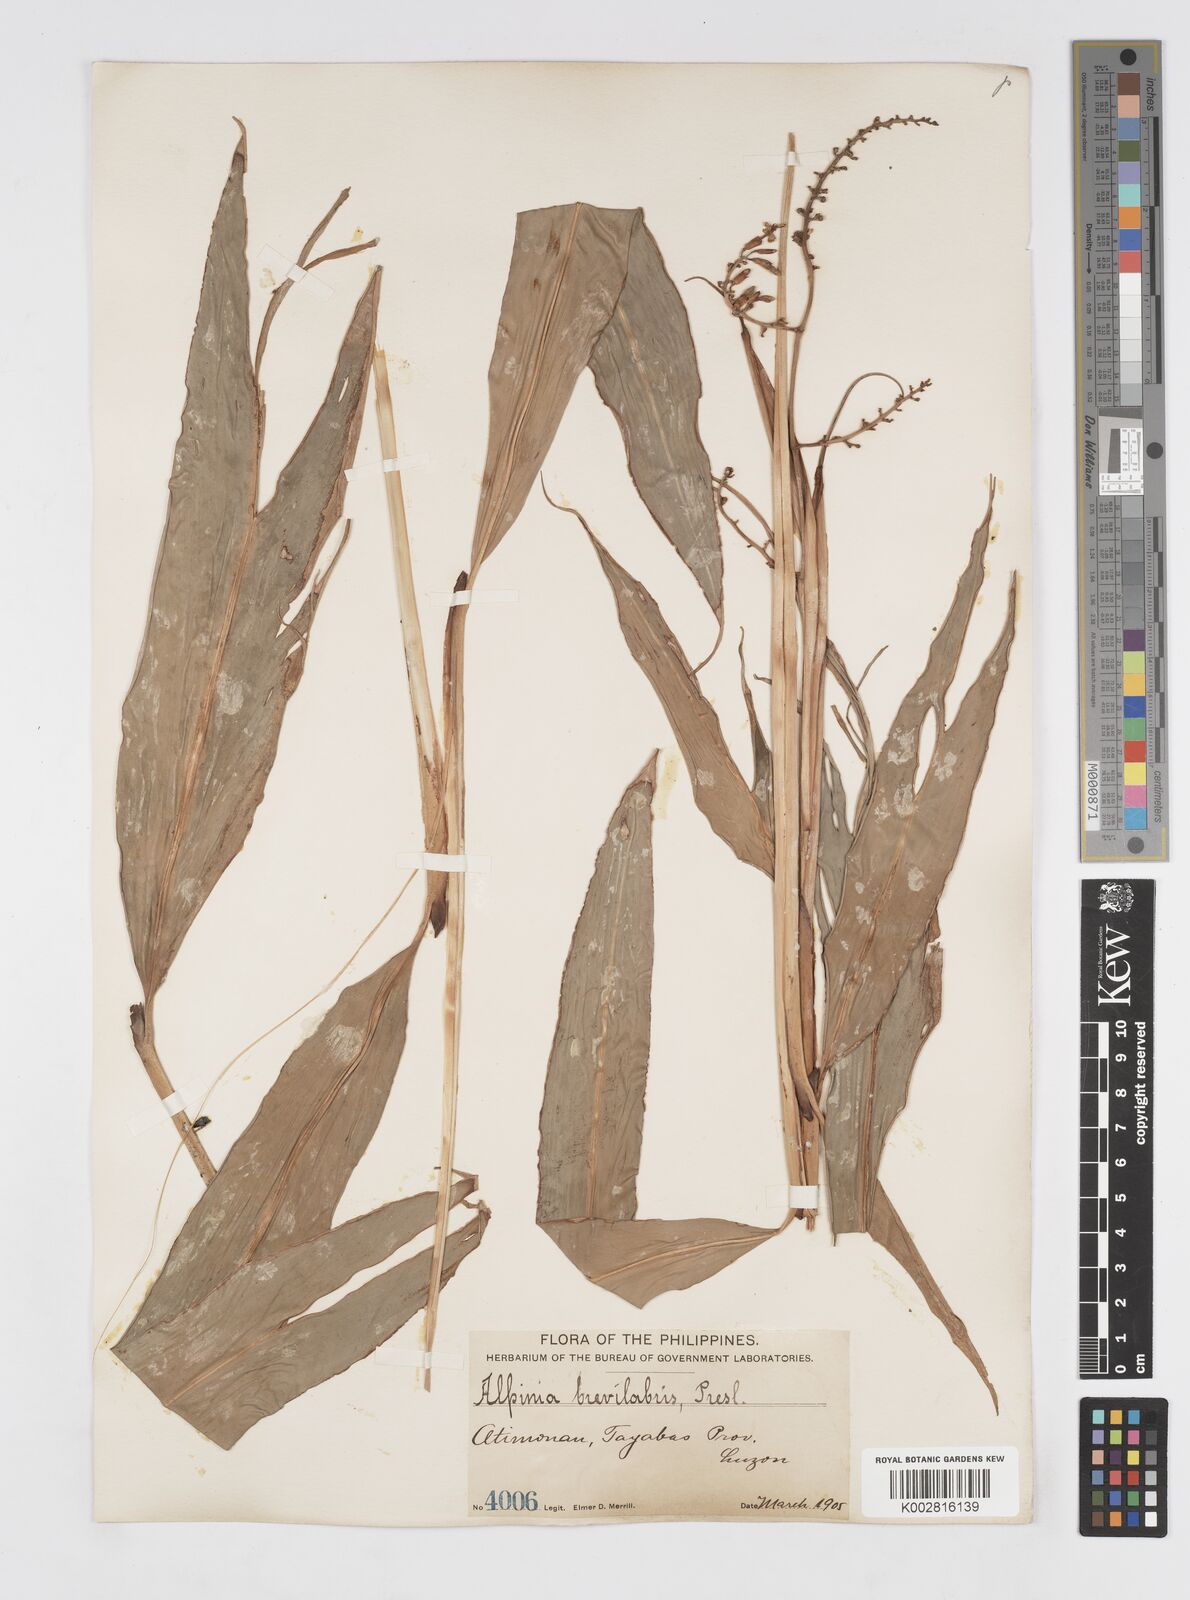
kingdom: Plantae
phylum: Tracheophyta
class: Liliopsida
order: Zingiberales
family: Zingiberaceae
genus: Alpinia
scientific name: Alpinia brevilabris
